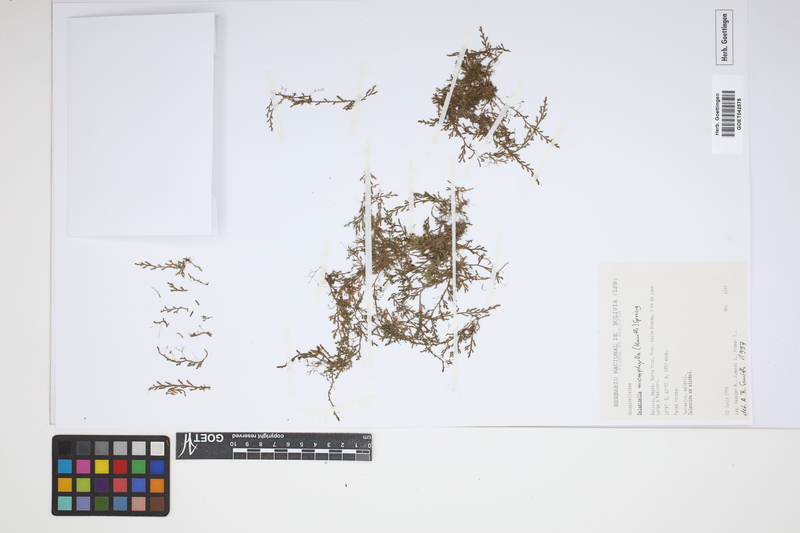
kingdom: Plantae
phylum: Tracheophyta
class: Lycopodiopsida
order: Selaginellales
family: Selaginellaceae
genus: Selaginella
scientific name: Selaginella microphylla
